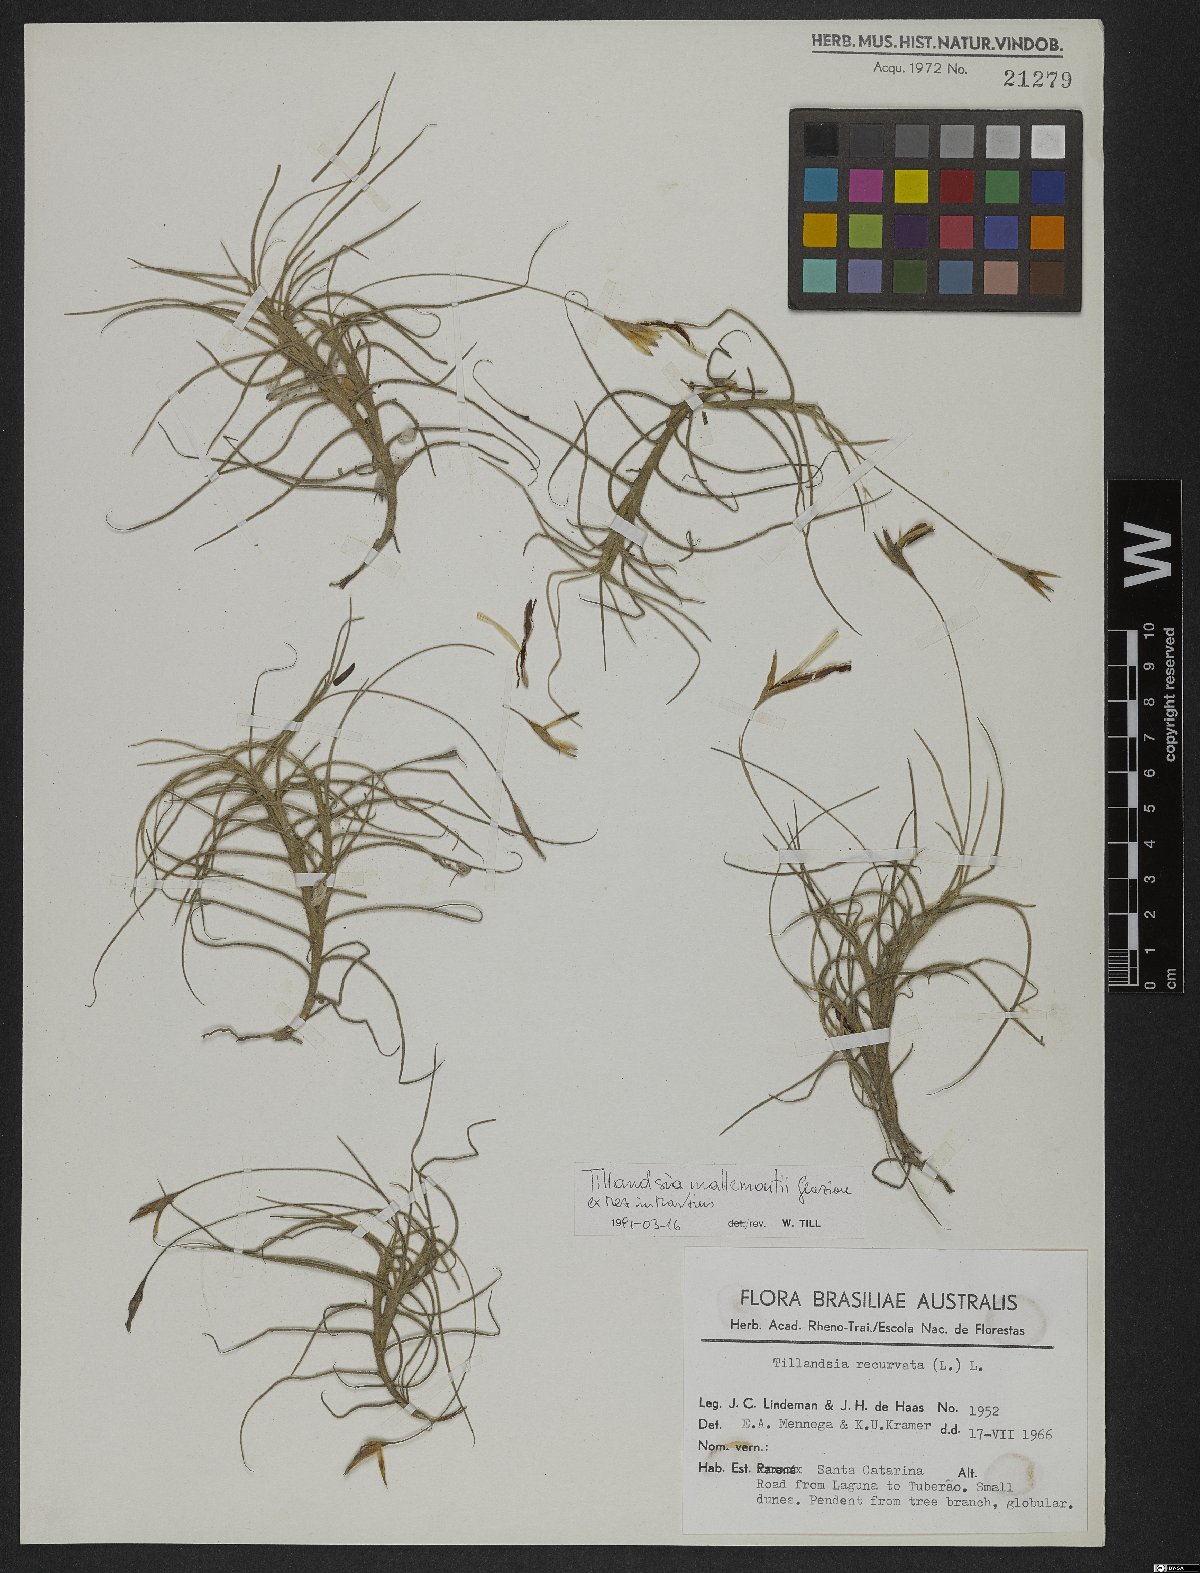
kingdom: Plantae
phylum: Tracheophyta
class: Liliopsida
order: Poales
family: Bromeliaceae
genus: Tillandsia
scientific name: Tillandsia mallemontii
